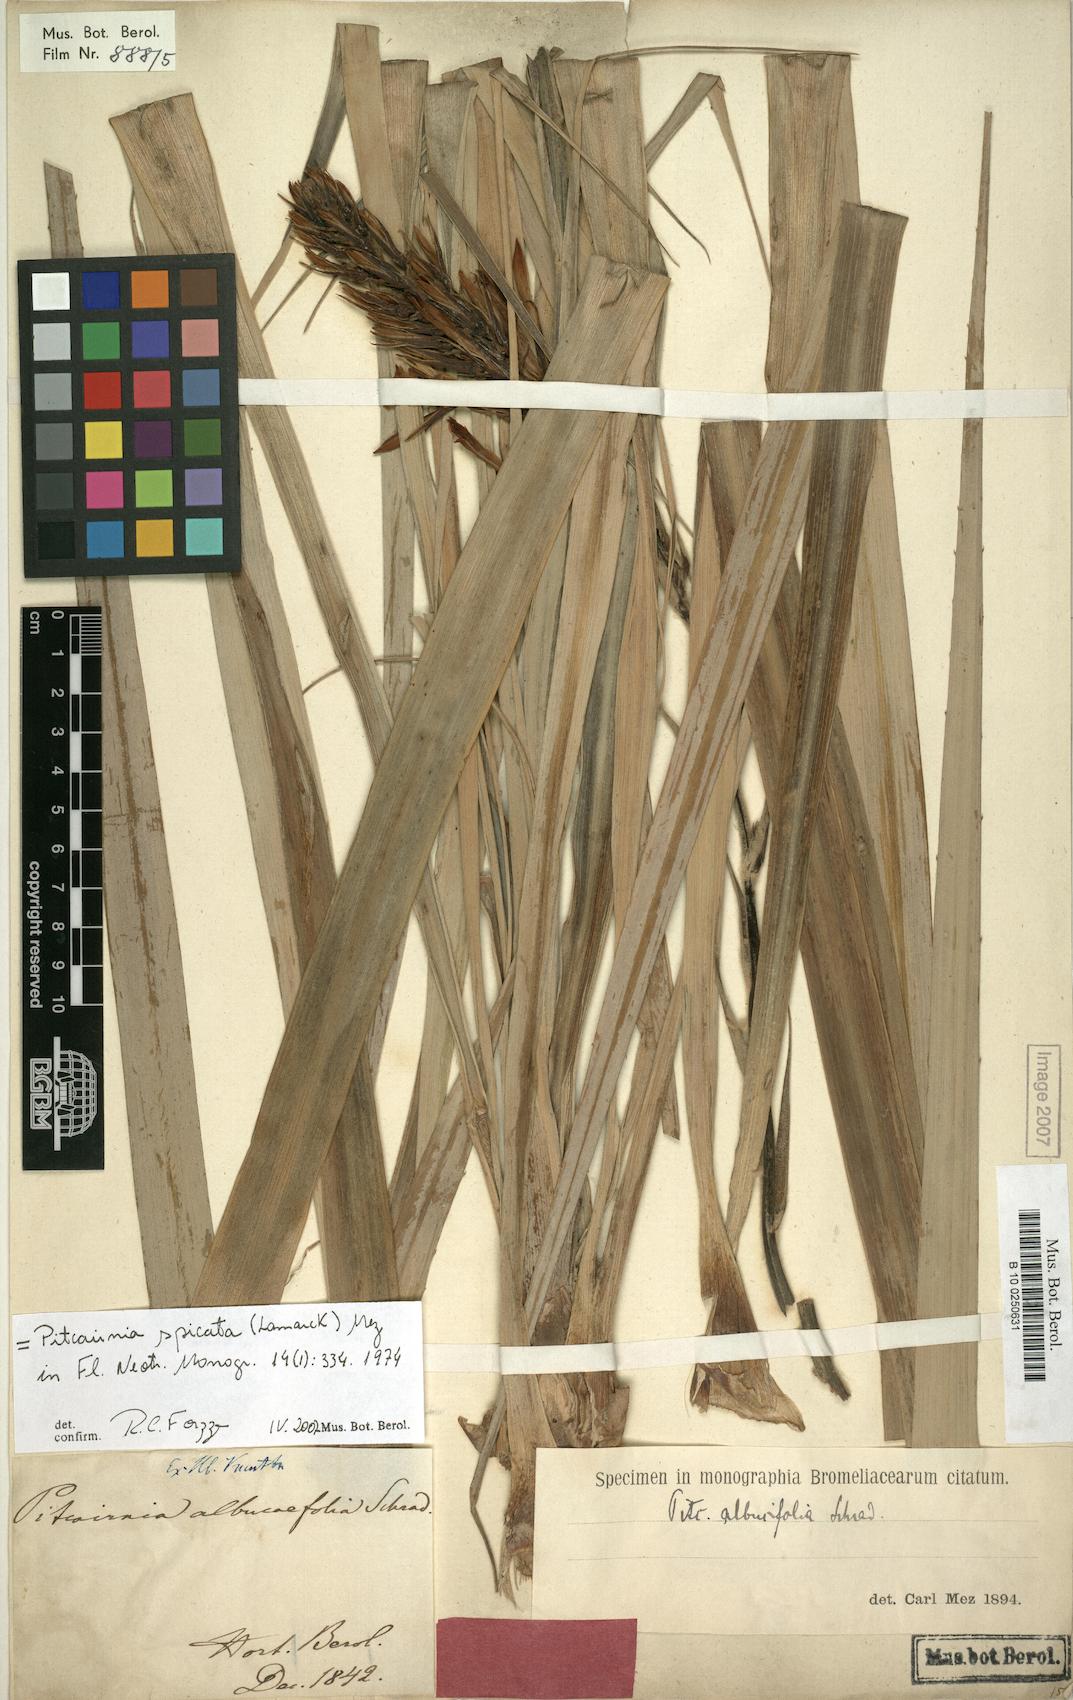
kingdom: Plantae
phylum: Tracheophyta
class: Liliopsida
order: Poales
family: Bromeliaceae
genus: Pitcairnia
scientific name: Pitcairnia spicata
